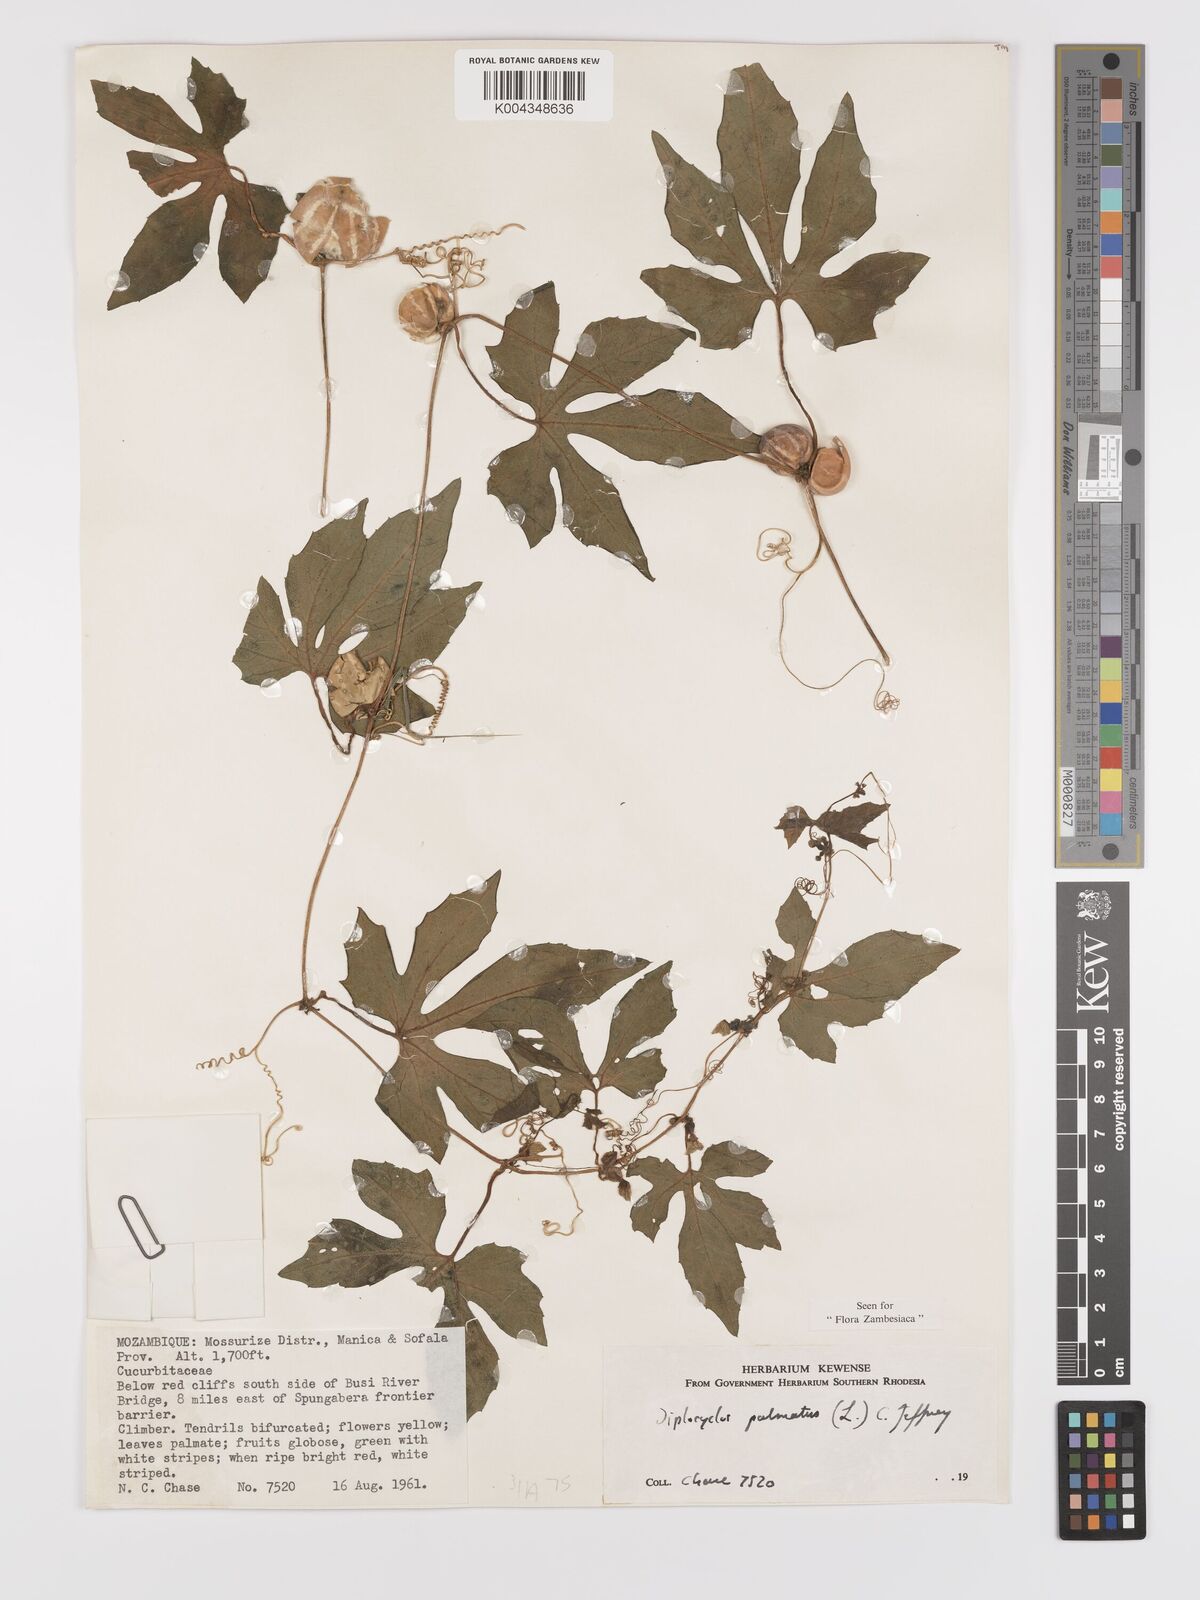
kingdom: Plantae
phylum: Tracheophyta
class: Magnoliopsida
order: Cucurbitales
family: Cucurbitaceae
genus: Diplocyclos
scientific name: Diplocyclos palmatus
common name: Striped-cucumber
